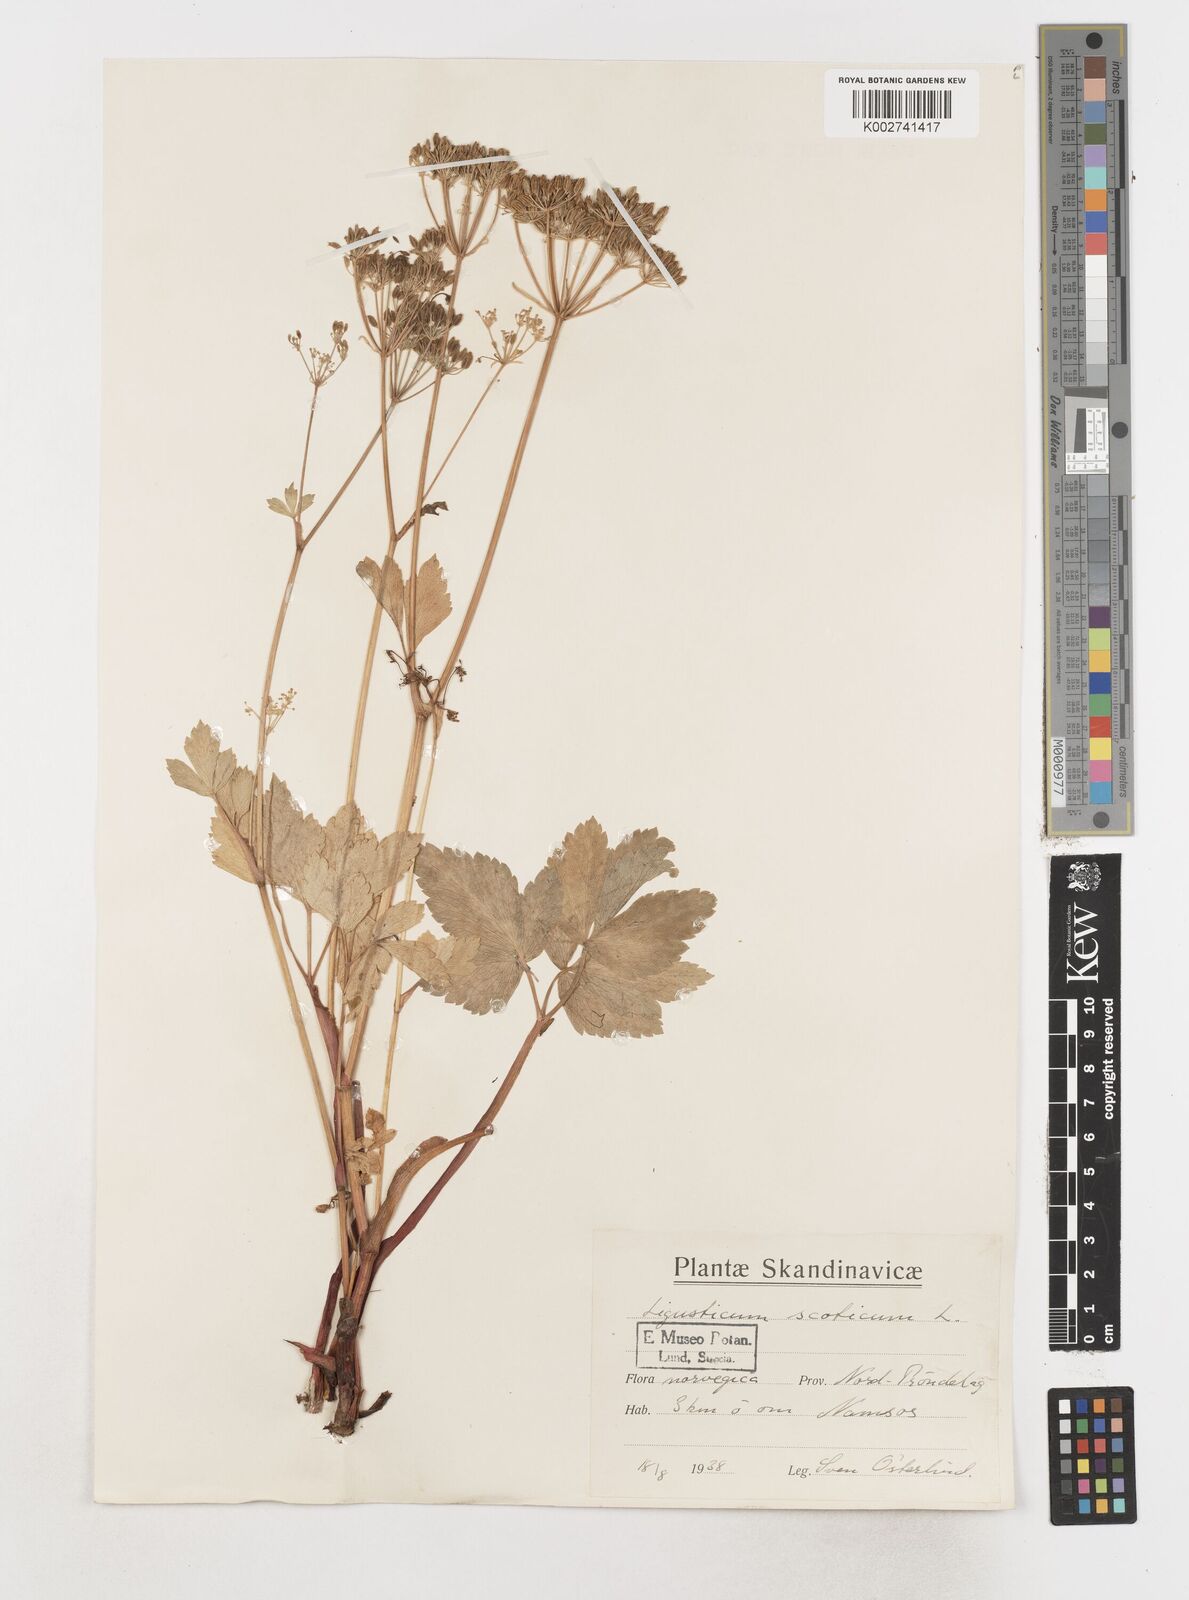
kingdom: Plantae
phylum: Tracheophyta
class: Magnoliopsida
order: Apiales
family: Apiaceae
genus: Ligusticum
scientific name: Ligusticum scothicum
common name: Beach lovage
